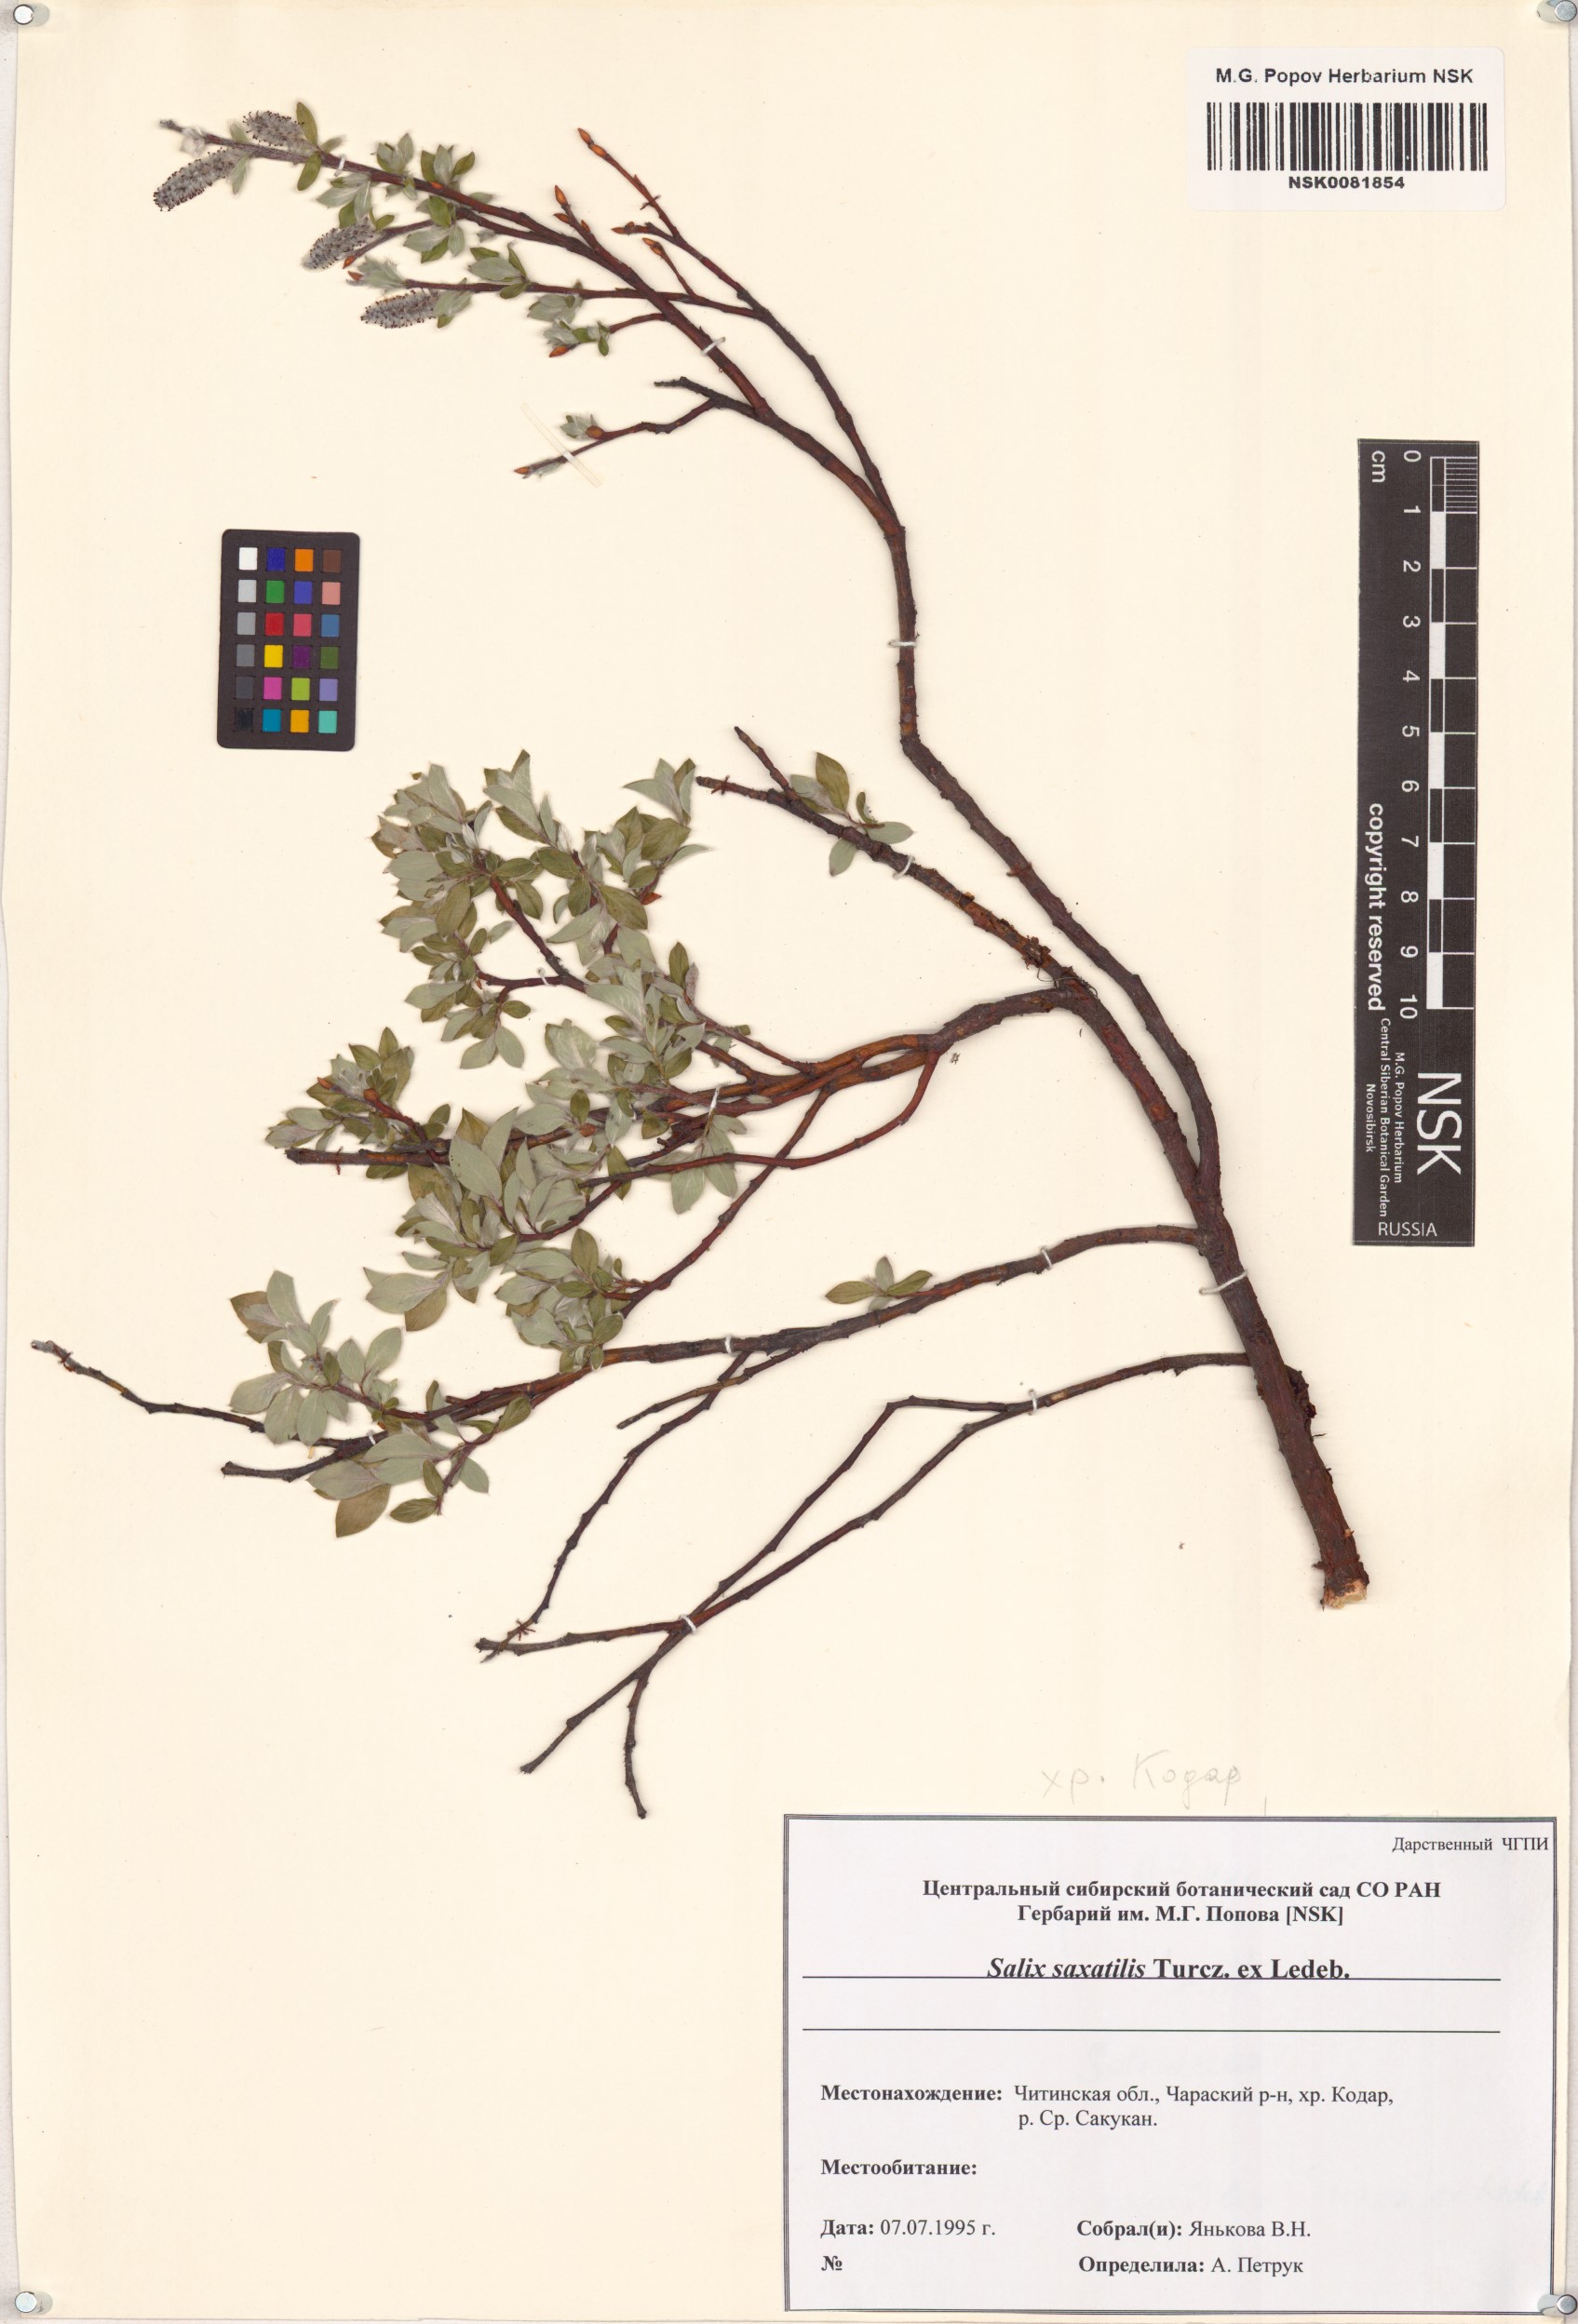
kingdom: Plantae
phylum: Tracheophyta
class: Magnoliopsida
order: Malpighiales
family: Salicaceae
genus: Salix
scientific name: Salix saxatilis
